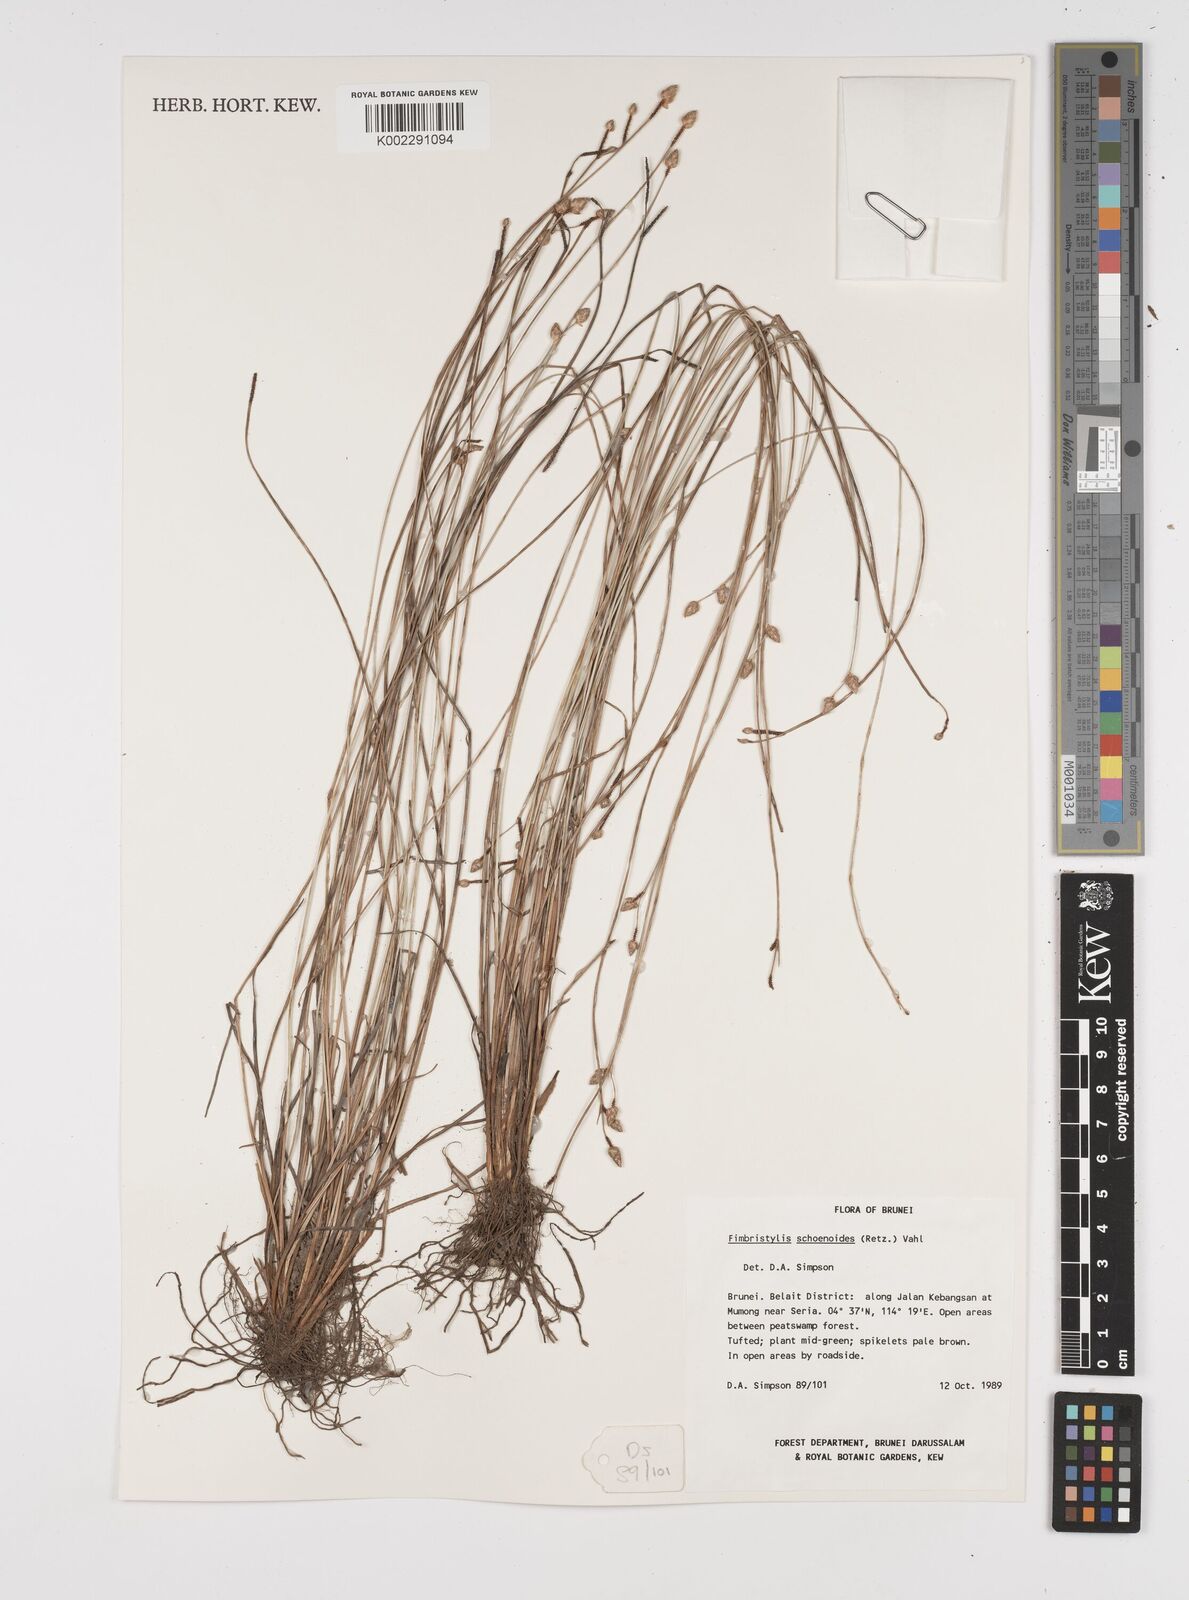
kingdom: Plantae
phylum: Tracheophyta
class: Liliopsida
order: Poales
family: Cyperaceae
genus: Fimbristylis
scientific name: Fimbristylis schoenoides
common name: Ditch fimbry
